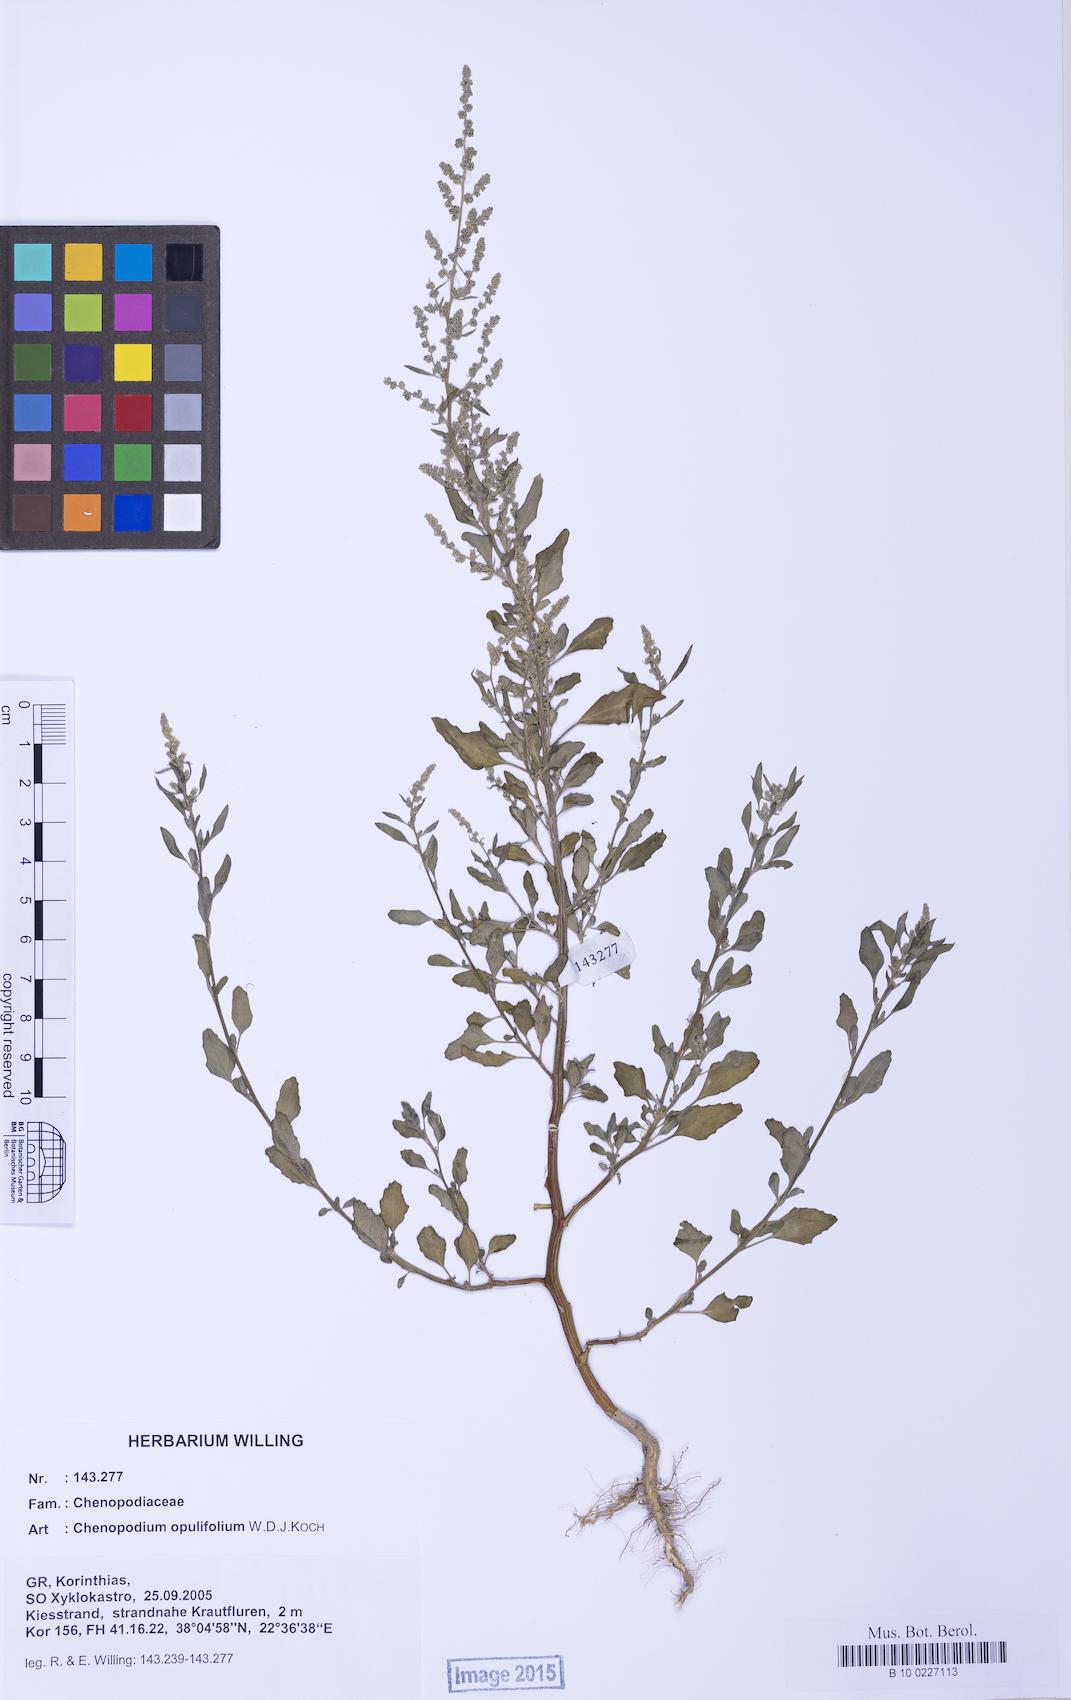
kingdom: Plantae
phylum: Tracheophyta
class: Magnoliopsida
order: Caryophyllales
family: Amaranthaceae
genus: Chenopodium
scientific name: Chenopodium album
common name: Fat-hen
